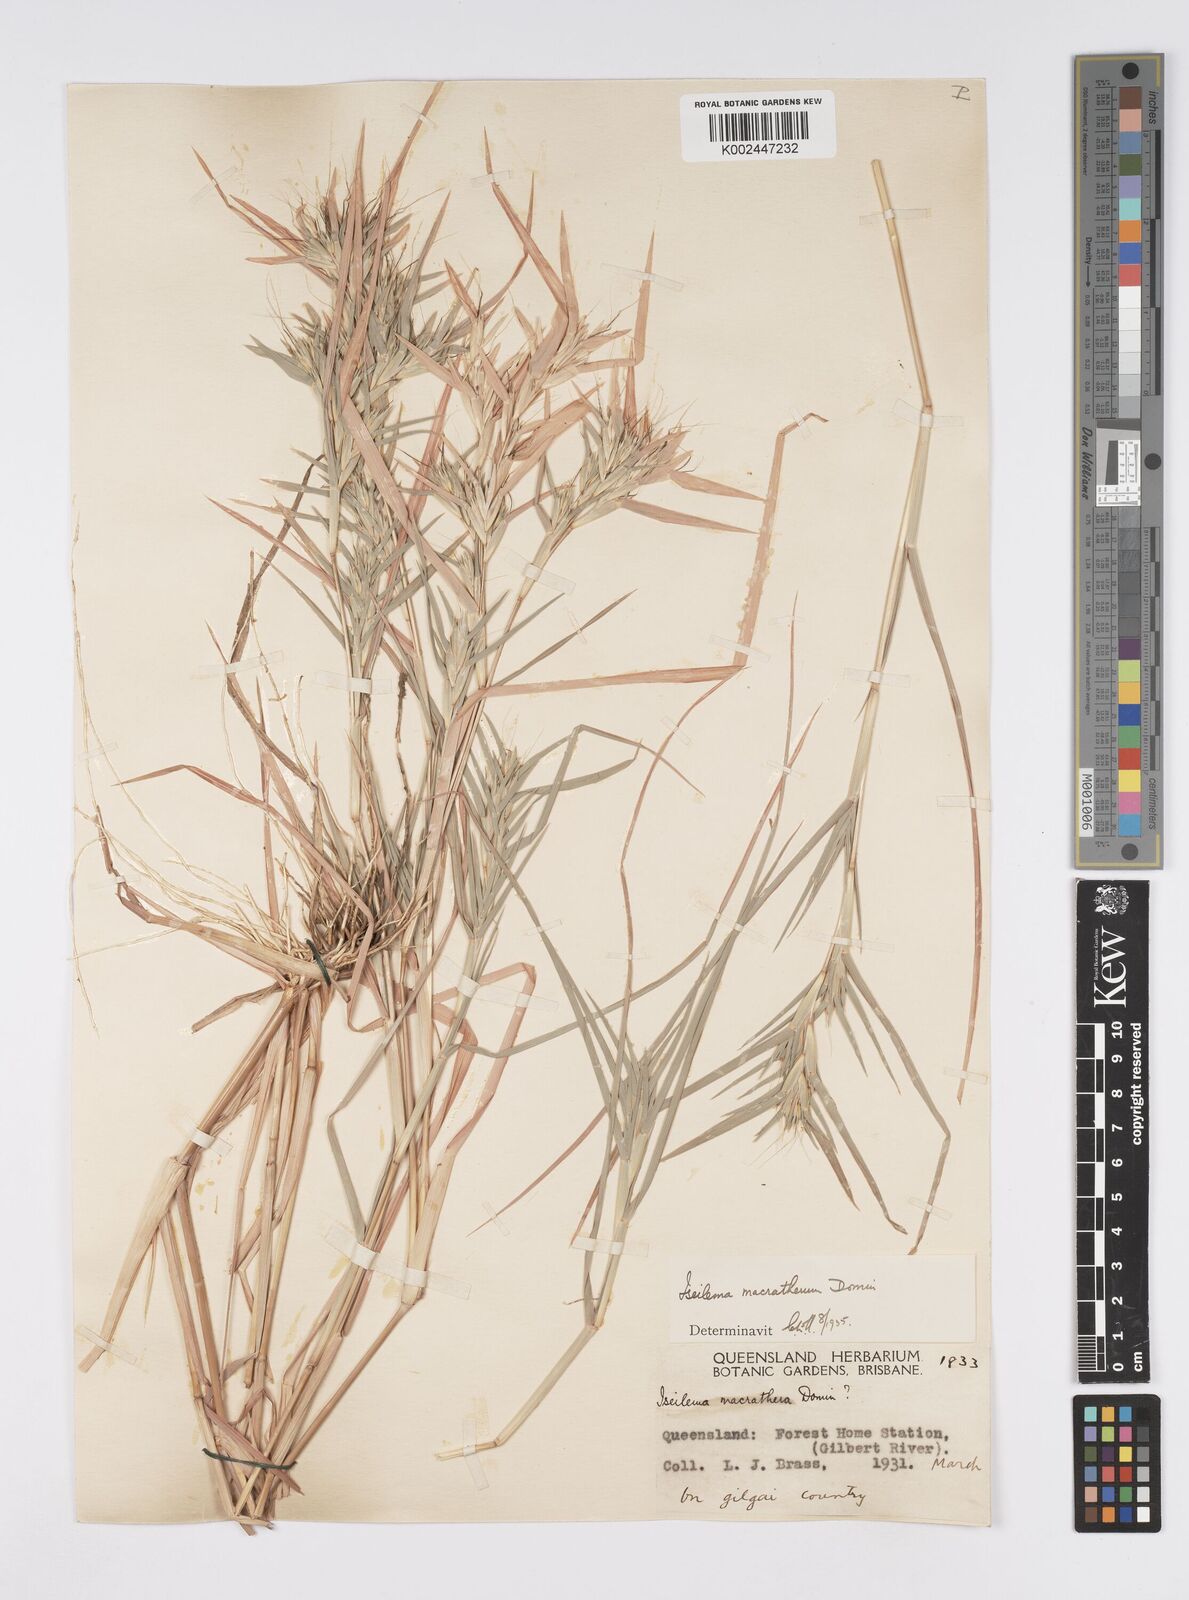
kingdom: Plantae
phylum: Tracheophyta
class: Liliopsida
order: Poales
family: Poaceae
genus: Iseilema
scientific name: Iseilema macratherum
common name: Bull flinders grass
